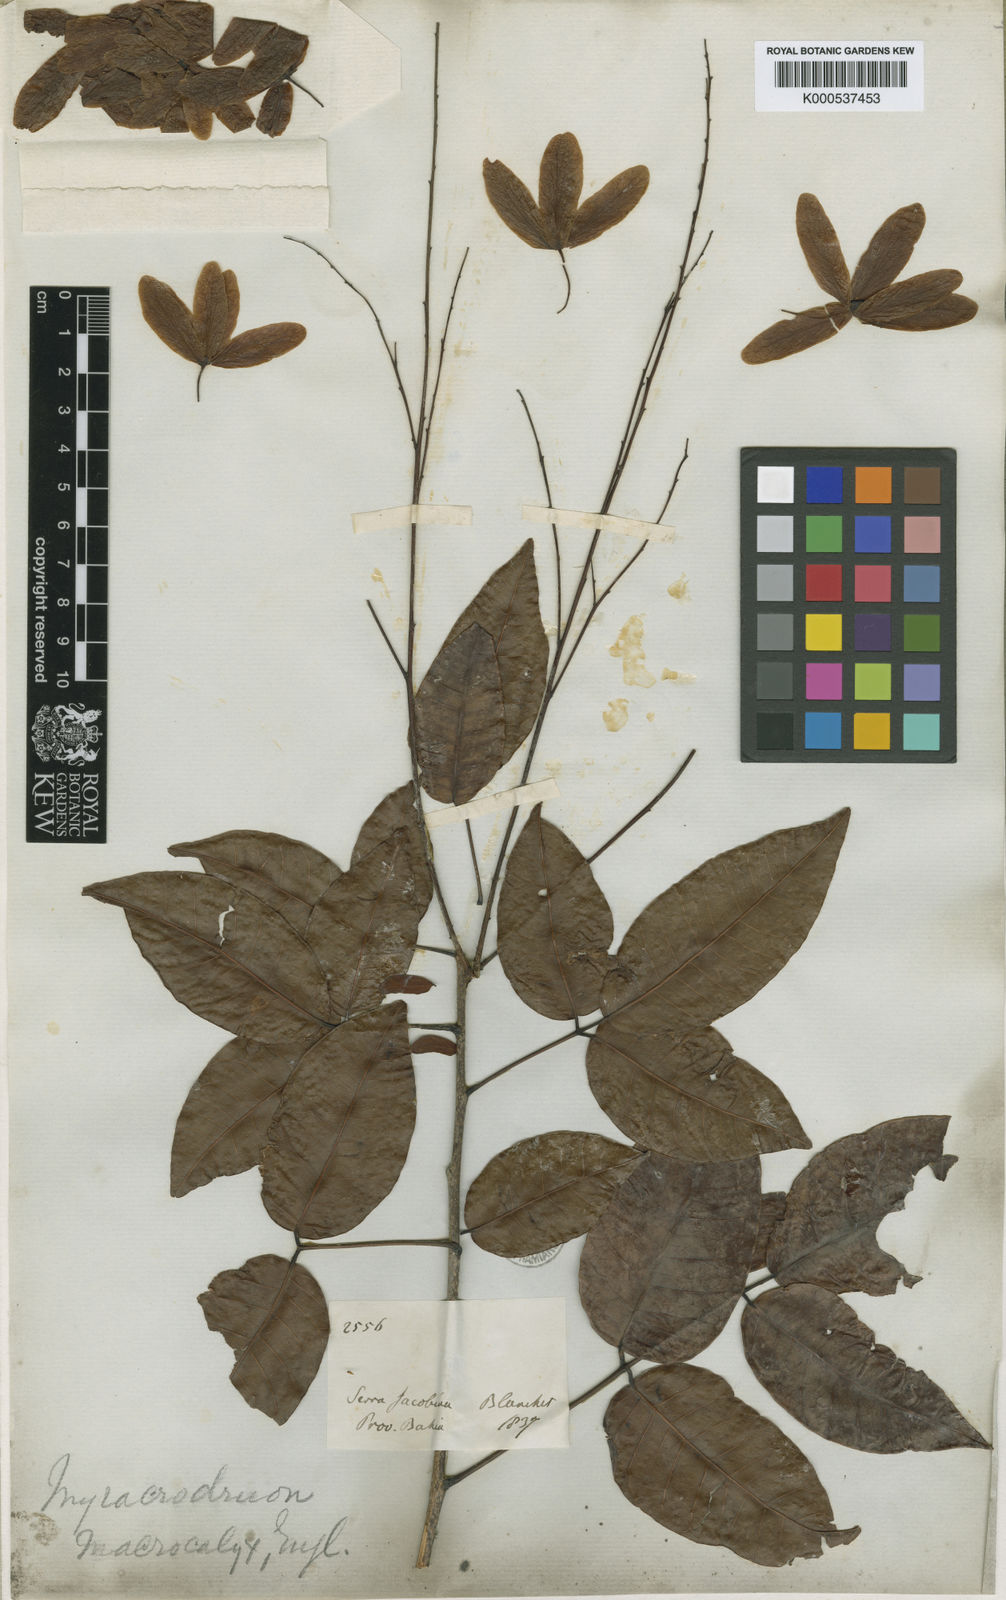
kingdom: Plantae
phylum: Tracheophyta
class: Magnoliopsida
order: Sapindales
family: Anacardiaceae
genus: Myracrodruon
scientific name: Myracrodruon urundeuva
